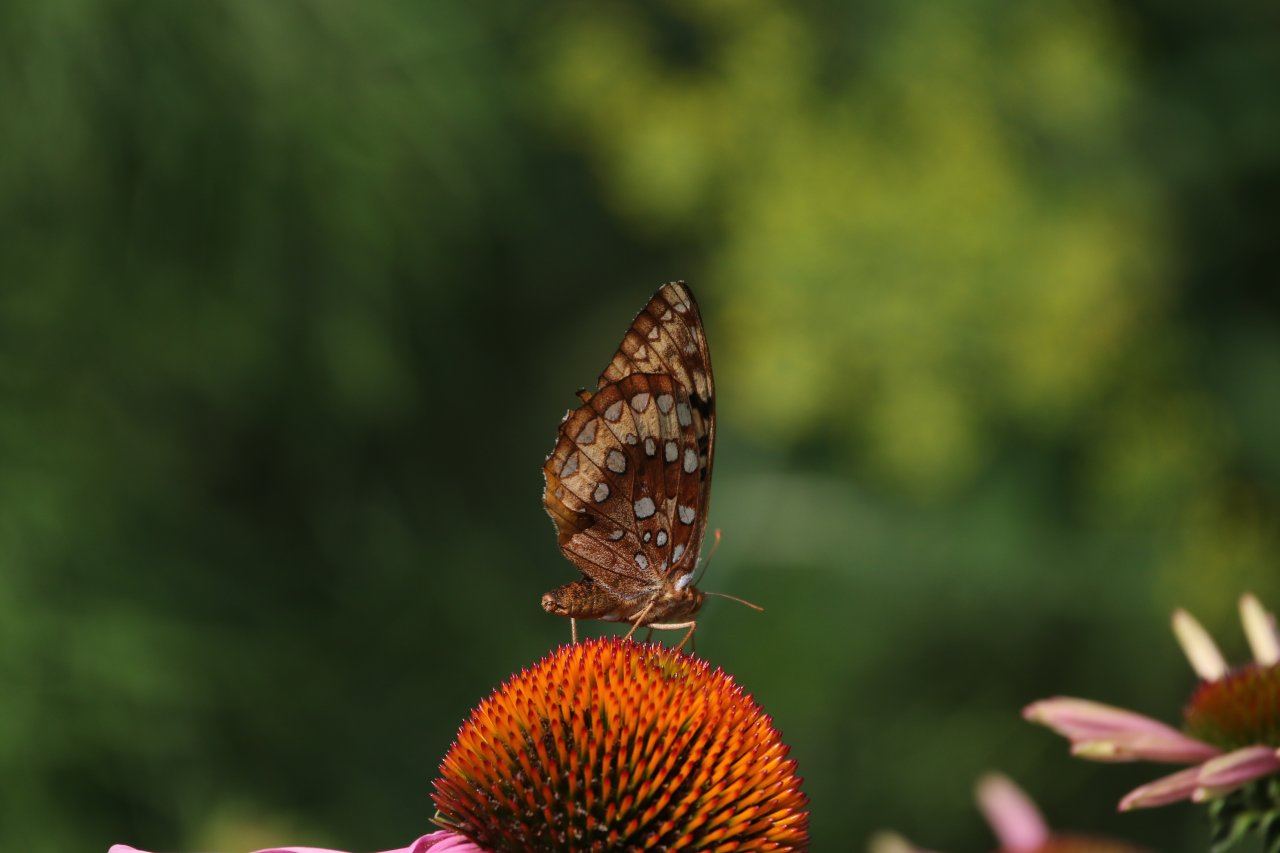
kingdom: Animalia
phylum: Arthropoda
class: Insecta
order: Lepidoptera
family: Nymphalidae
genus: Speyeria
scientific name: Speyeria cybele
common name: Great Spangled Fritillary
